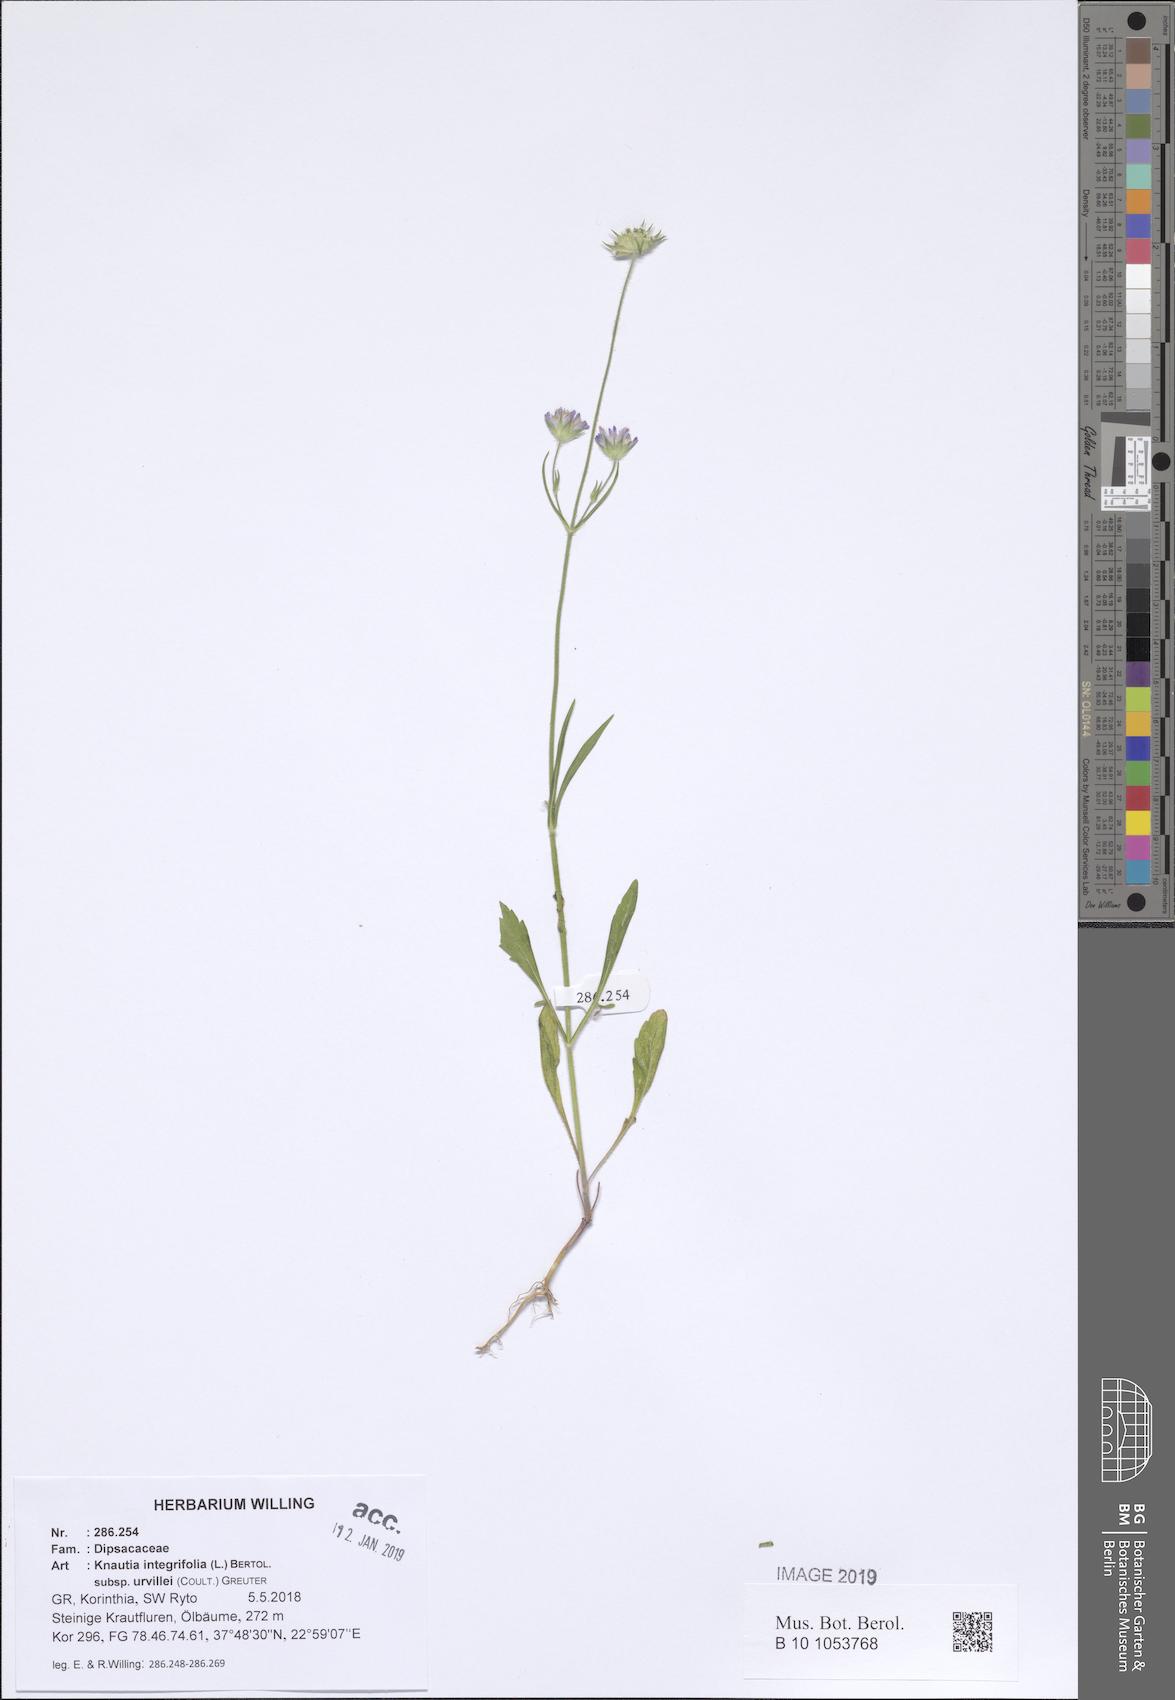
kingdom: Plantae
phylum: Tracheophyta
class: Magnoliopsida
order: Dipsacales
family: Caprifoliaceae
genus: Knautia
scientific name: Knautia integrifolia
